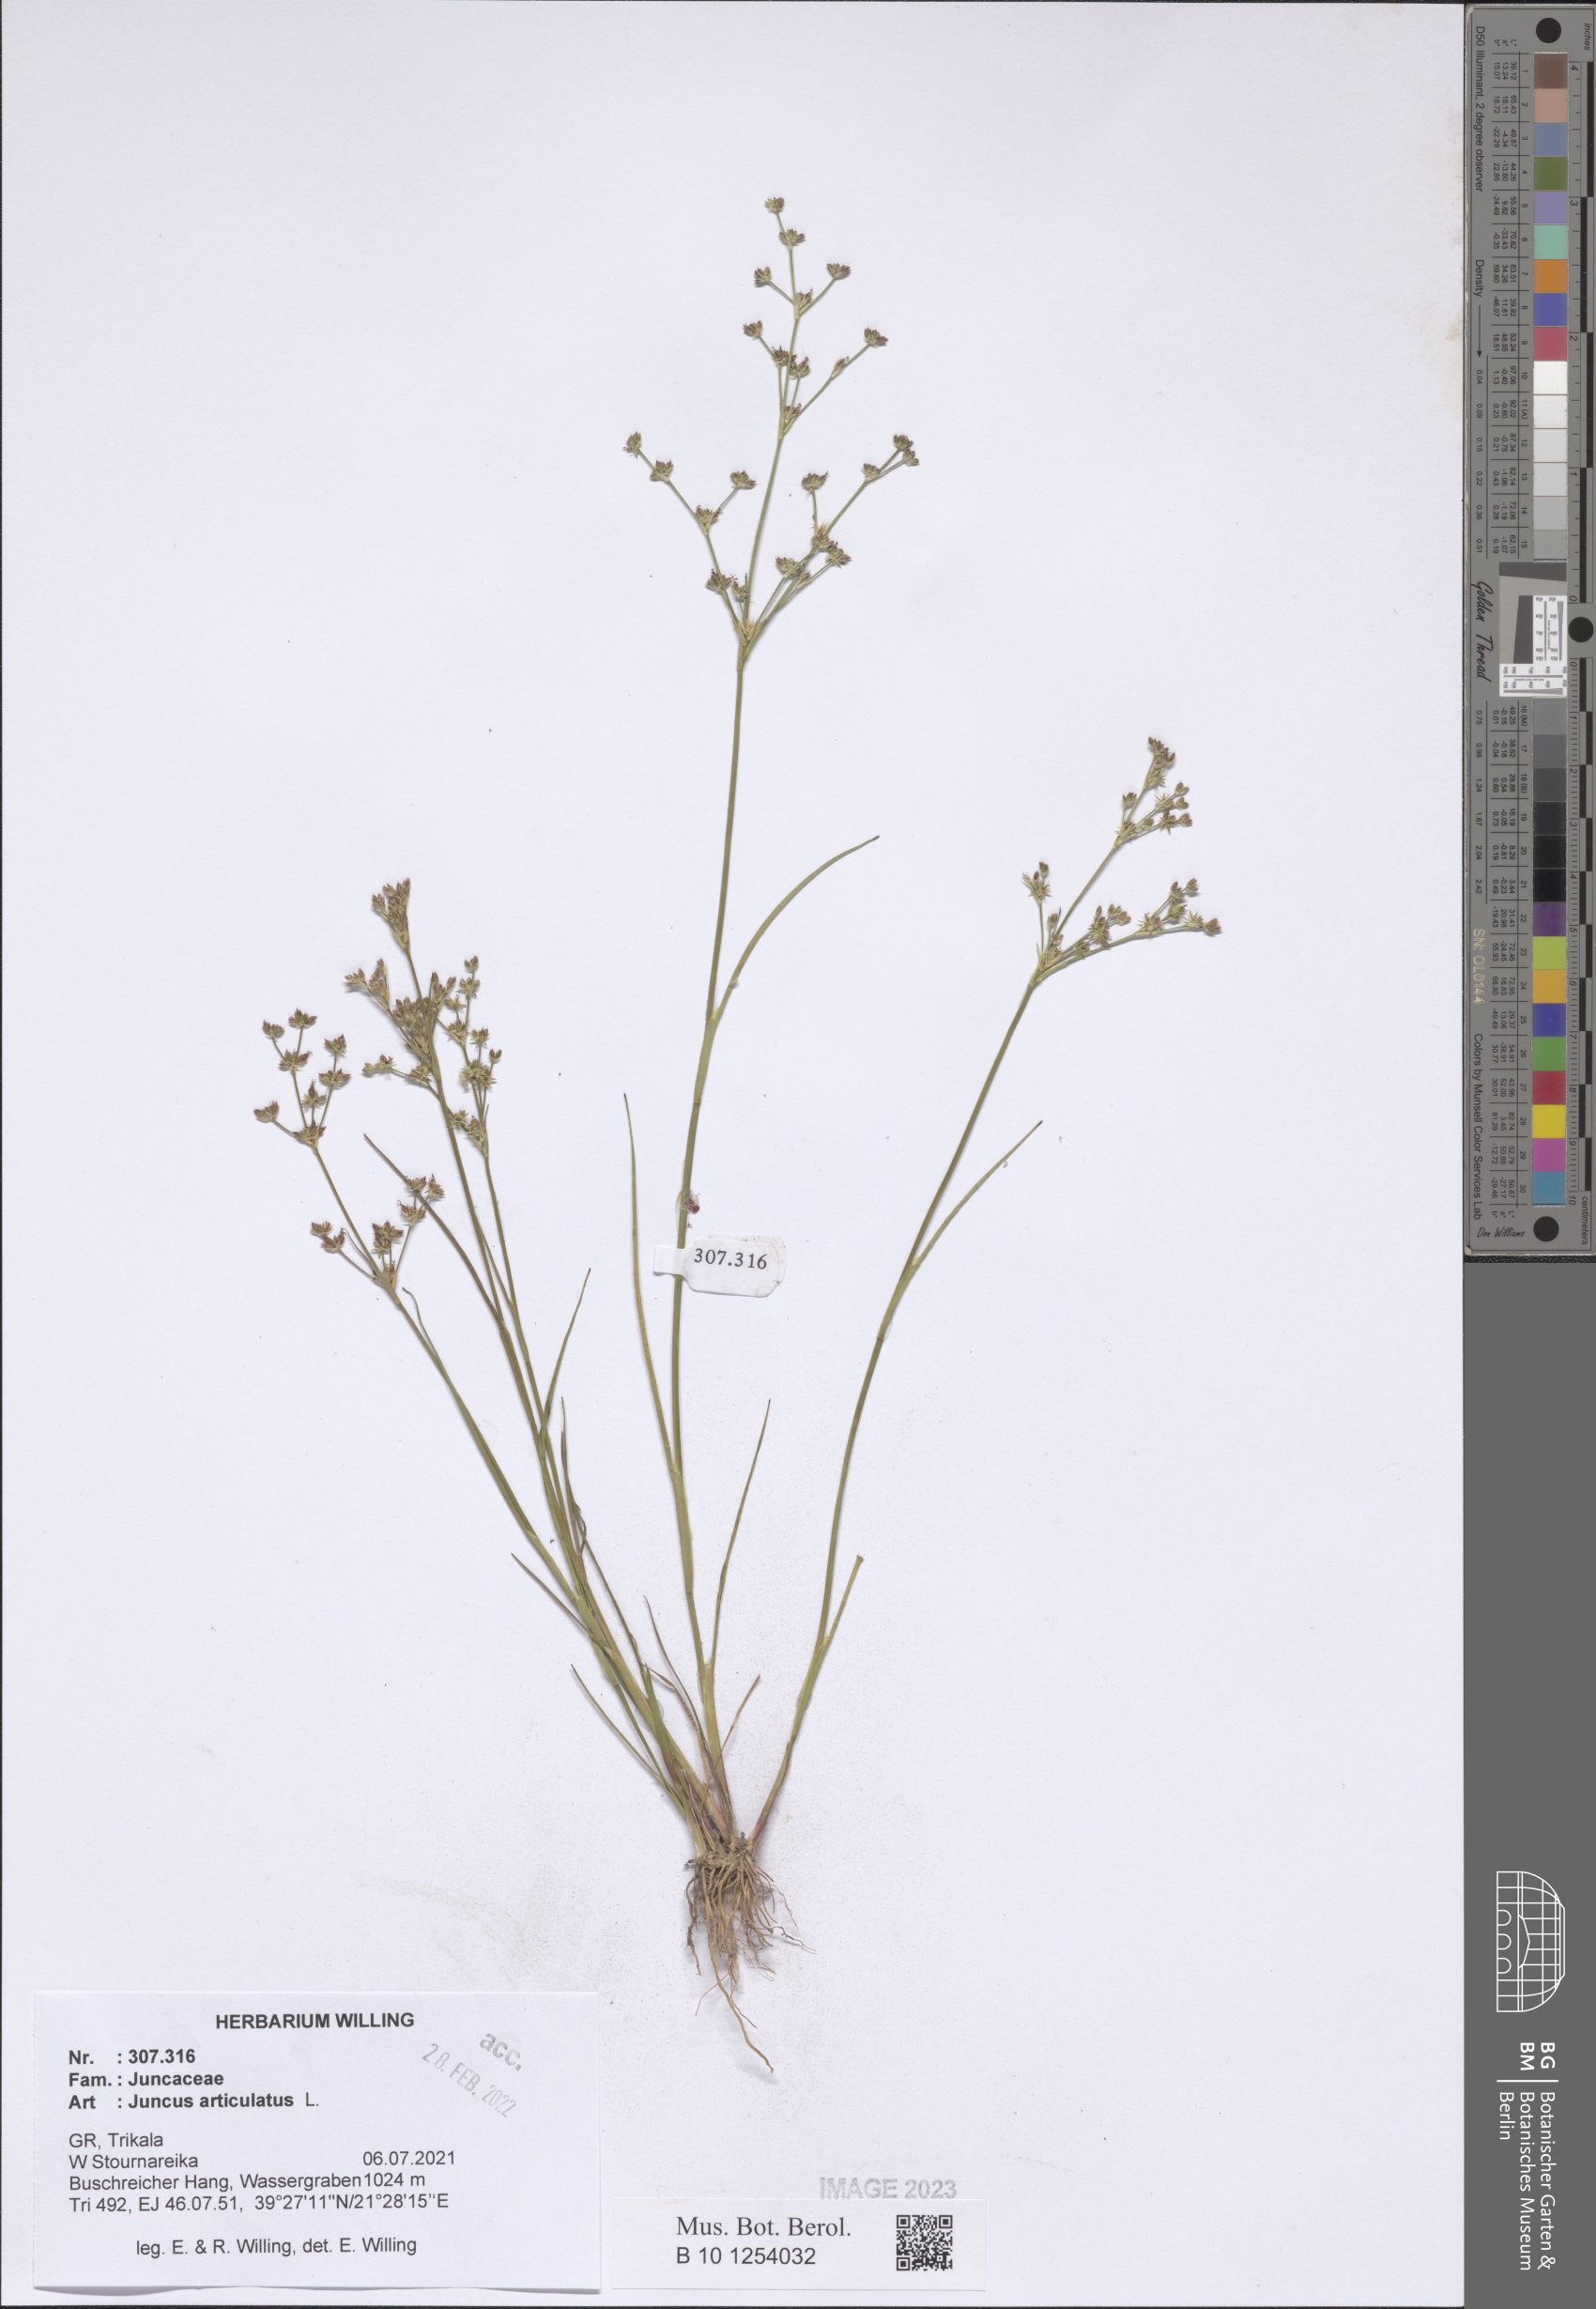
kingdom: Plantae
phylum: Tracheophyta
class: Liliopsida
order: Poales
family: Juncaceae
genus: Juncus
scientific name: Juncus articulatus
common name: Jointed rush
